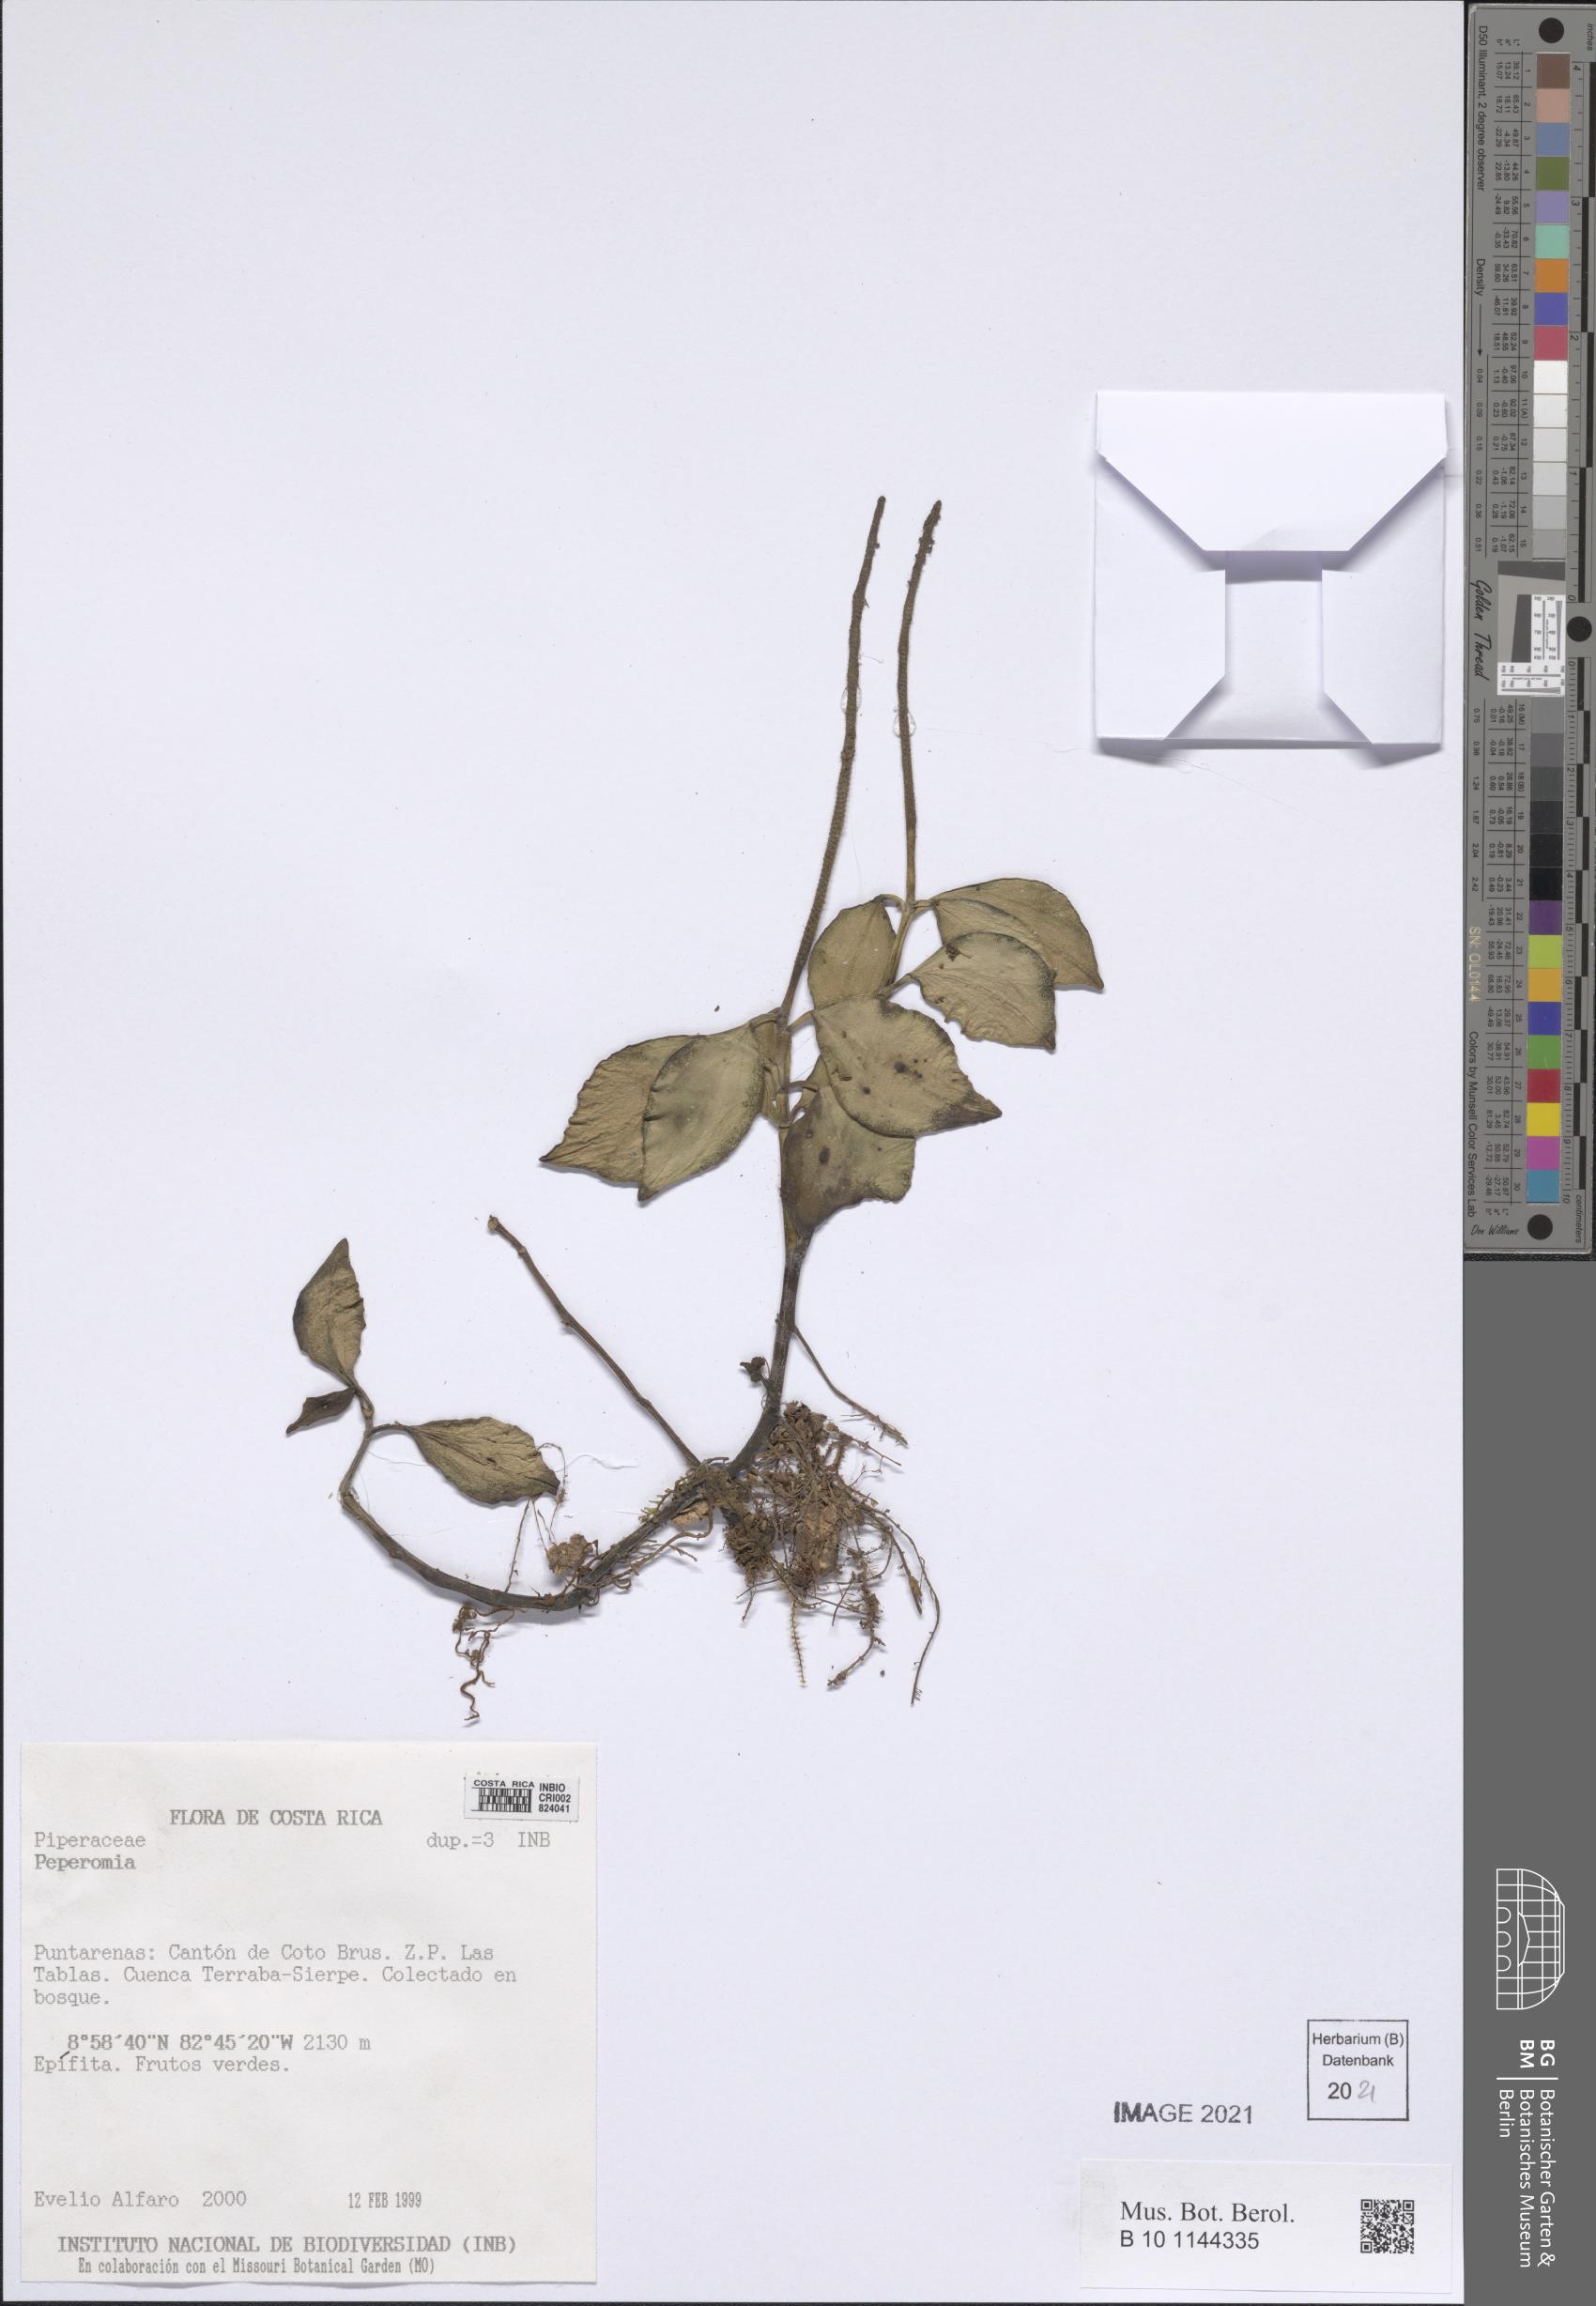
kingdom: Plantae
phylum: Tracheophyta
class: Magnoliopsida
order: Piperales
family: Piperaceae
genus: Peperomia
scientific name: Peperomia
